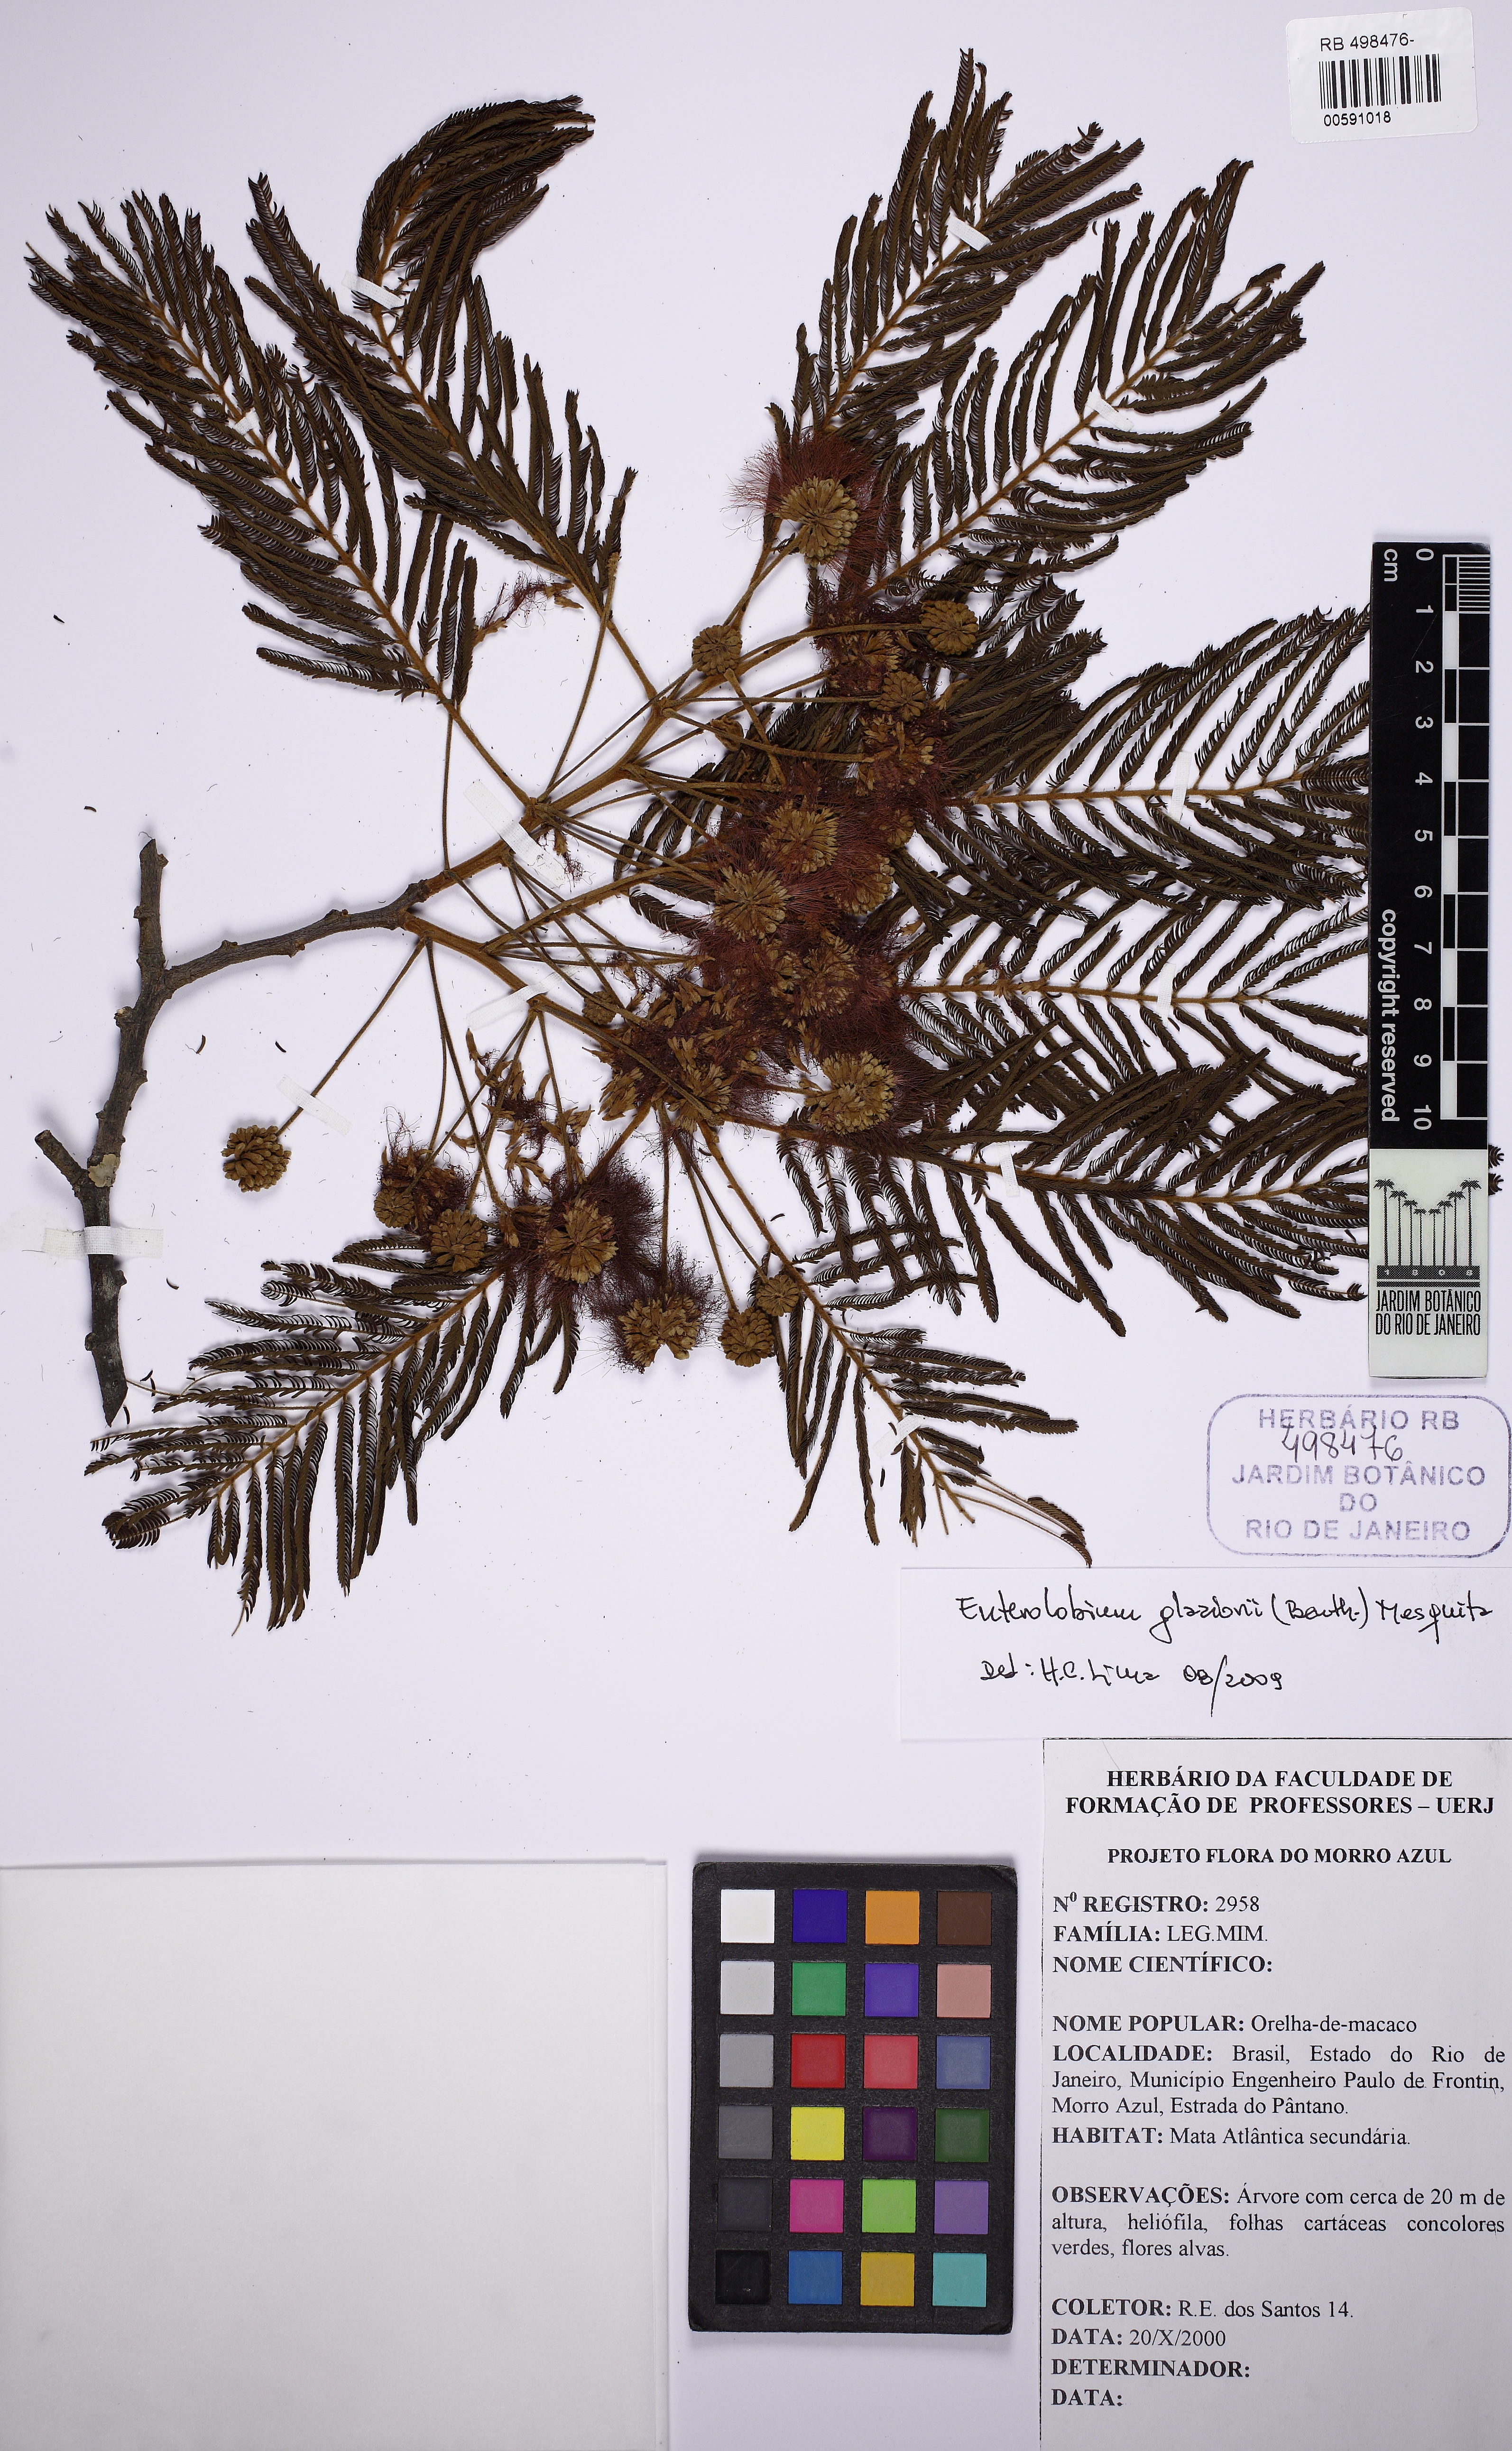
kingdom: Plantae
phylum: Tracheophyta
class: Magnoliopsida
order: Fabales
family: Fabaceae
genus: Enterolobium
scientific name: Enterolobium glaziovii
